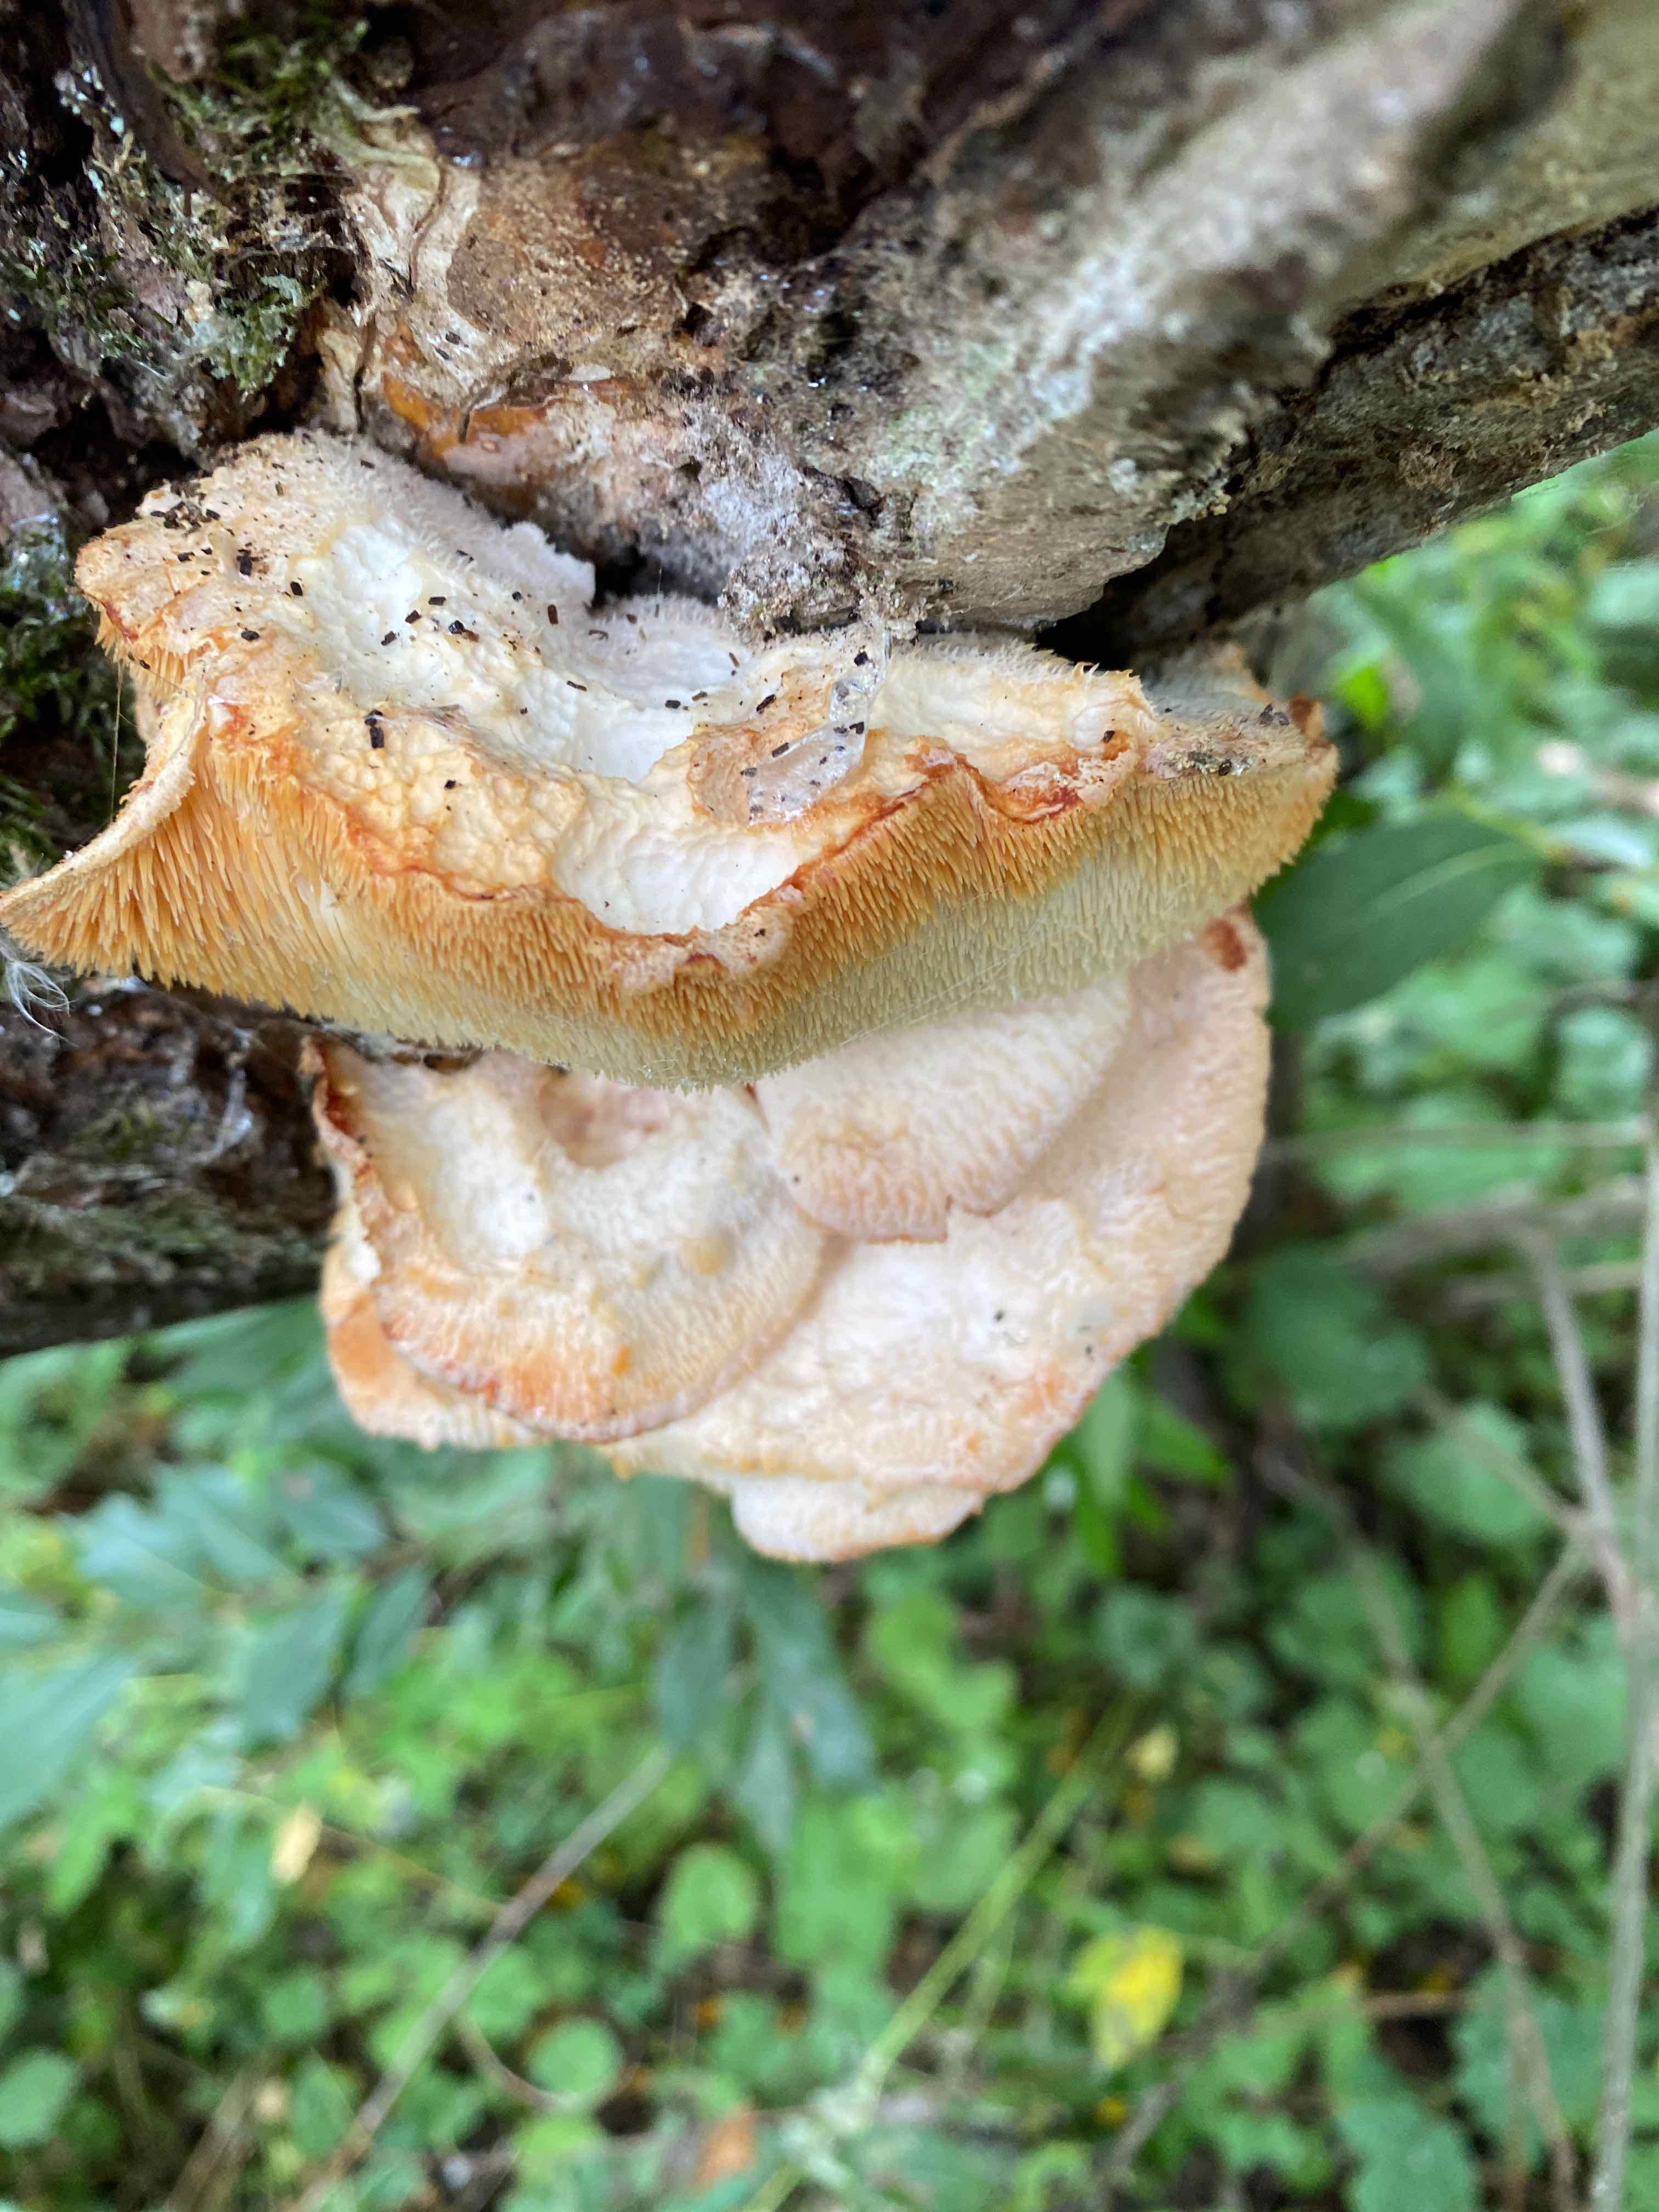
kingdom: Fungi
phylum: Basidiomycota
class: Agaricomycetes
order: Russulales
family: Hericiaceae
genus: Hericium
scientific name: Hericium cirrhatum
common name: børstepigsvamp
